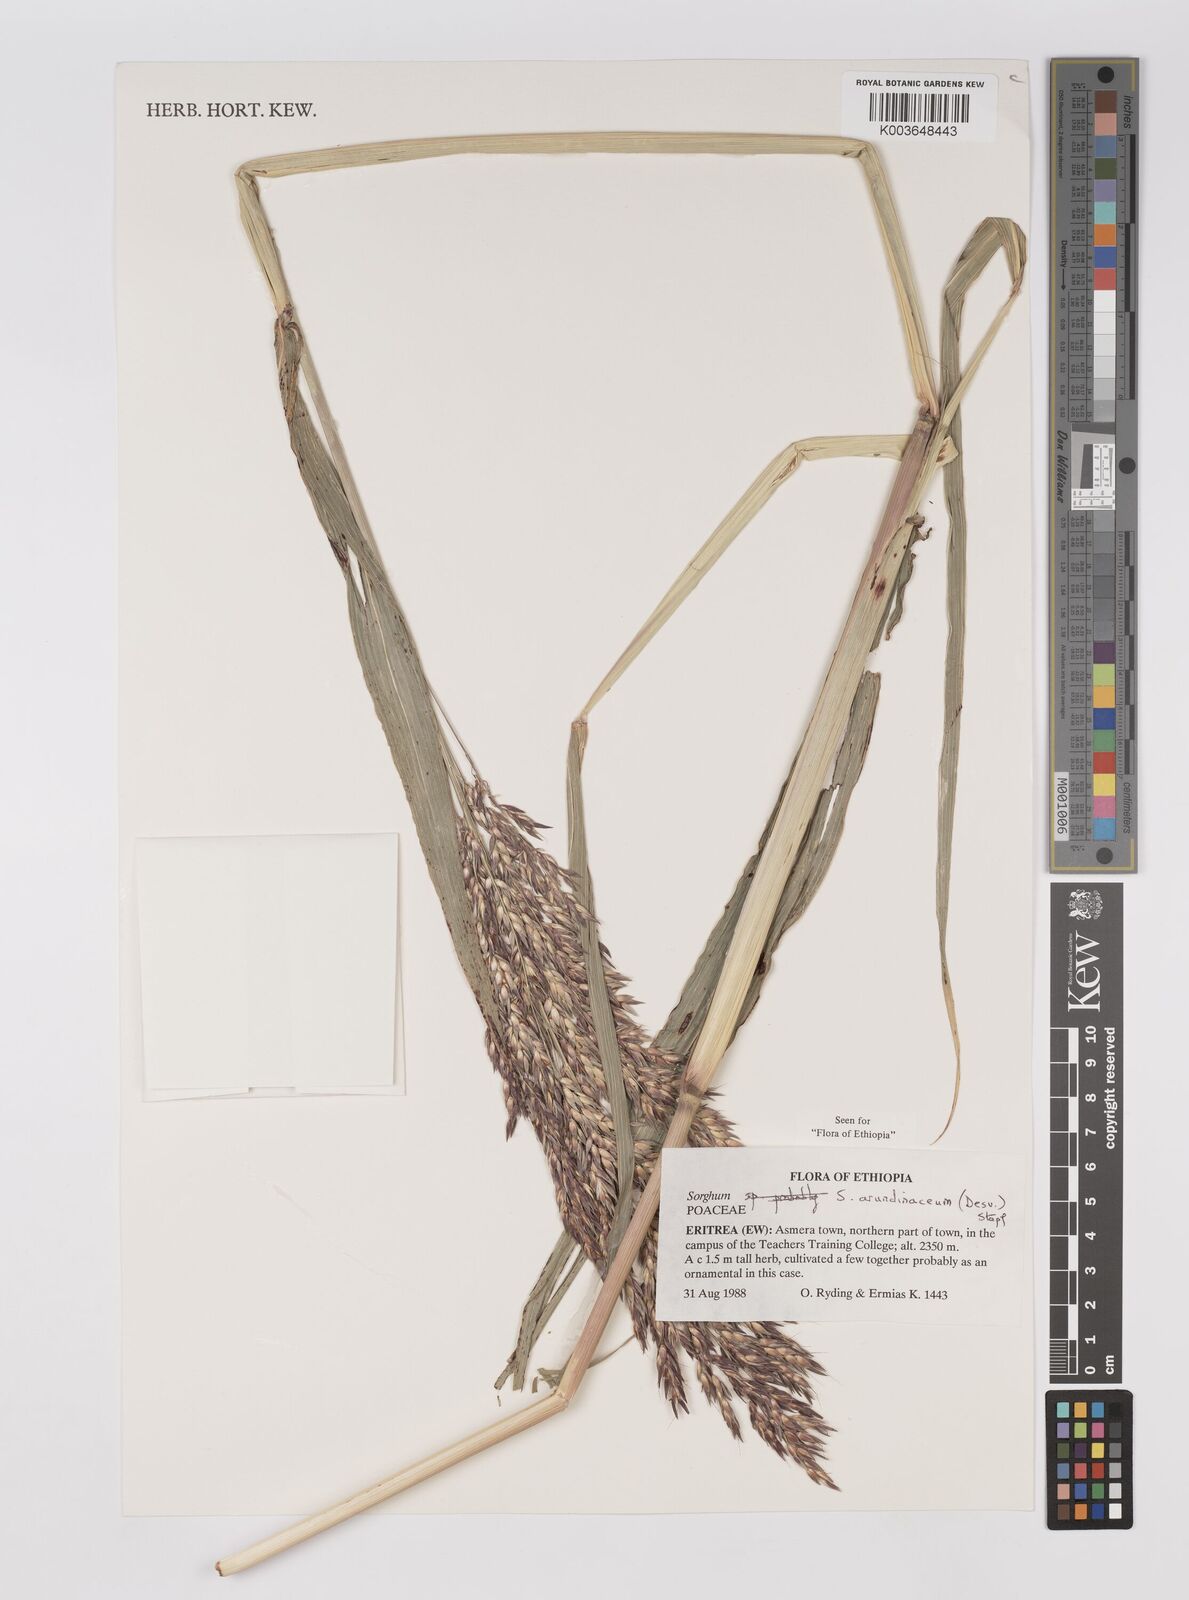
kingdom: Plantae
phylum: Tracheophyta
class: Liliopsida
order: Poales
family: Poaceae
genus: Sorghum
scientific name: Sorghum arundinaceum
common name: Sorghum
